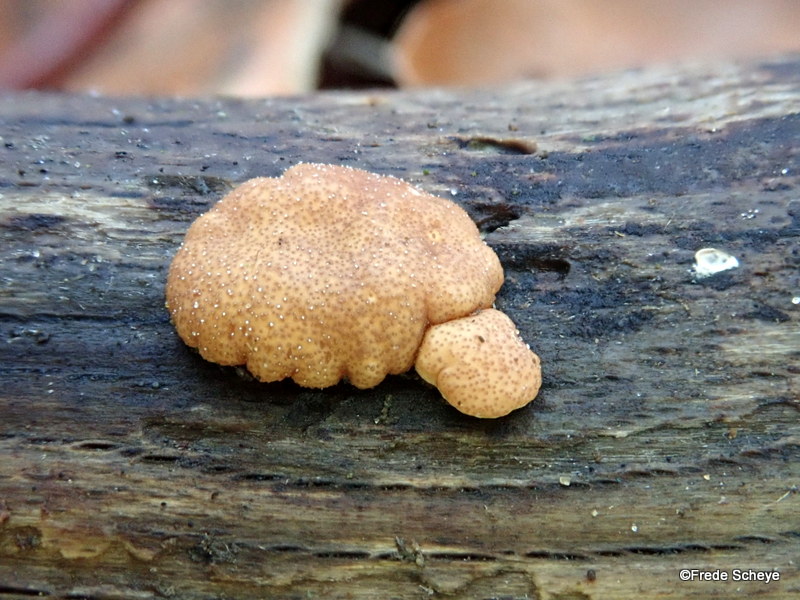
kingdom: Fungi
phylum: Ascomycota
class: Sordariomycetes
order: Hypocreales
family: Hypocreaceae
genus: Trichoderma
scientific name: Trichoderma europaeum
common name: rosabrun kødkerne
